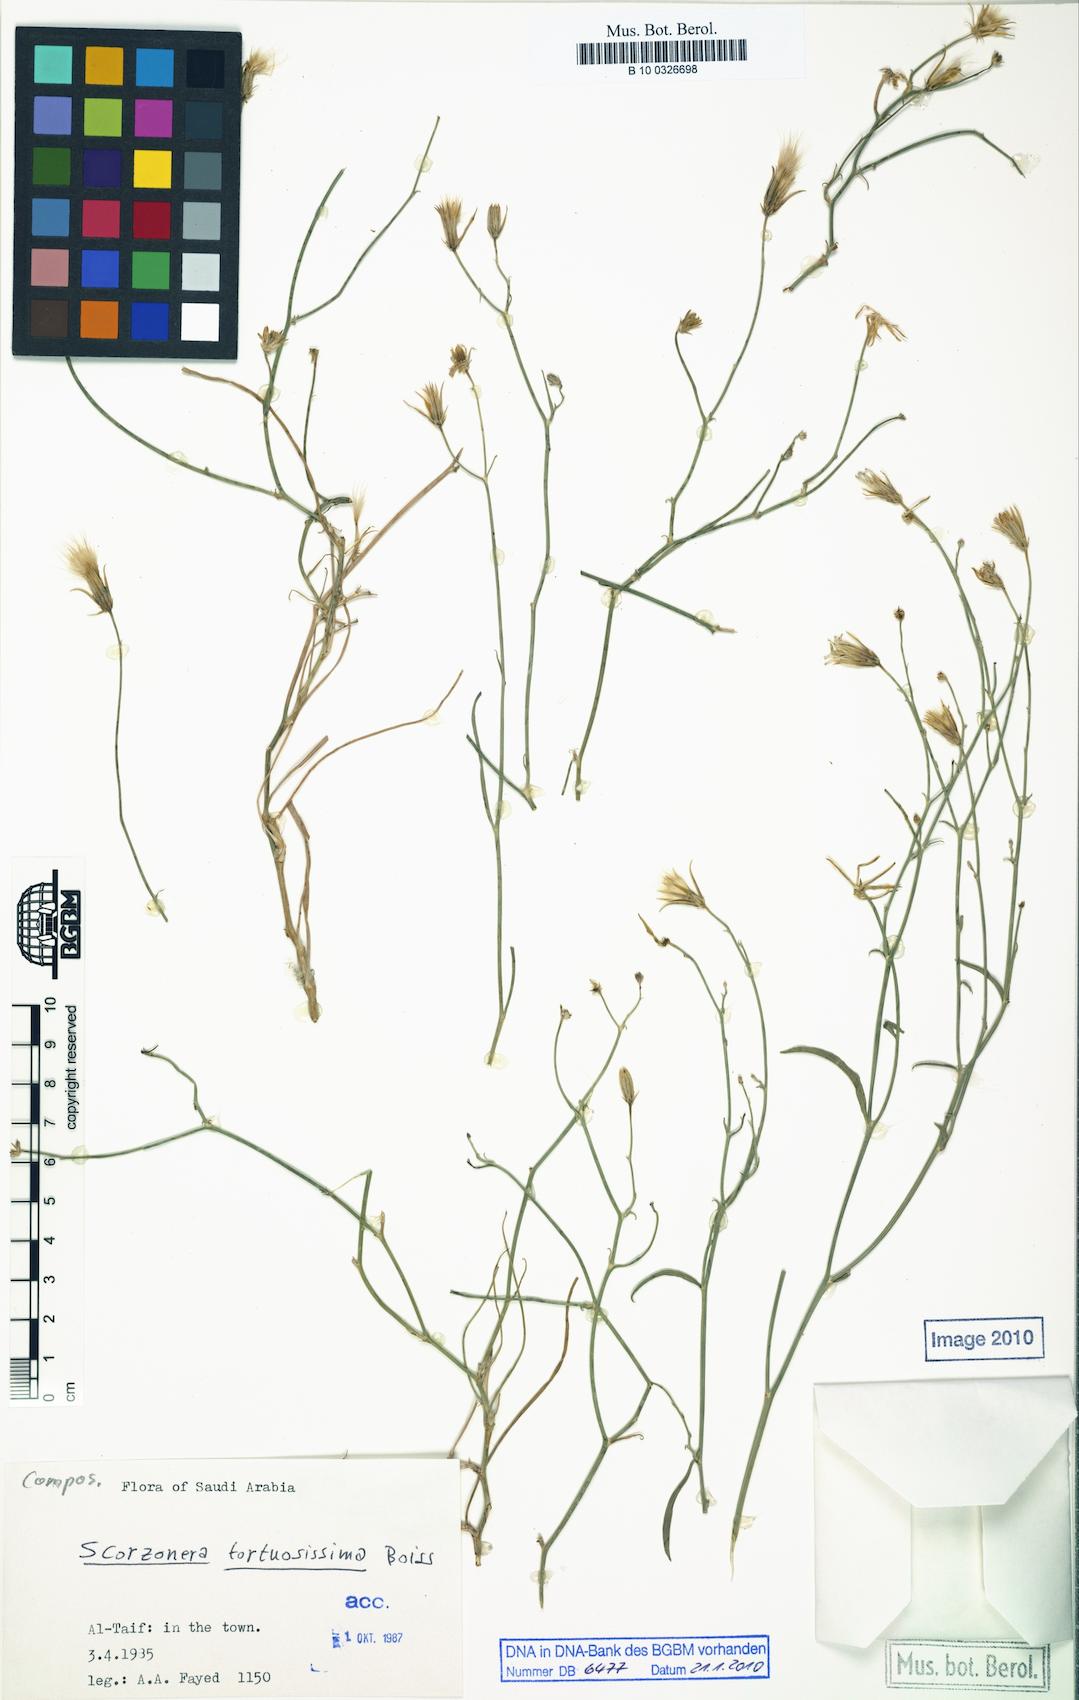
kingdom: Plantae
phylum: Tracheophyta
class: Magnoliopsida
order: Asterales
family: Asteraceae
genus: Ramaliella
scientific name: Ramaliella tortuosissima
